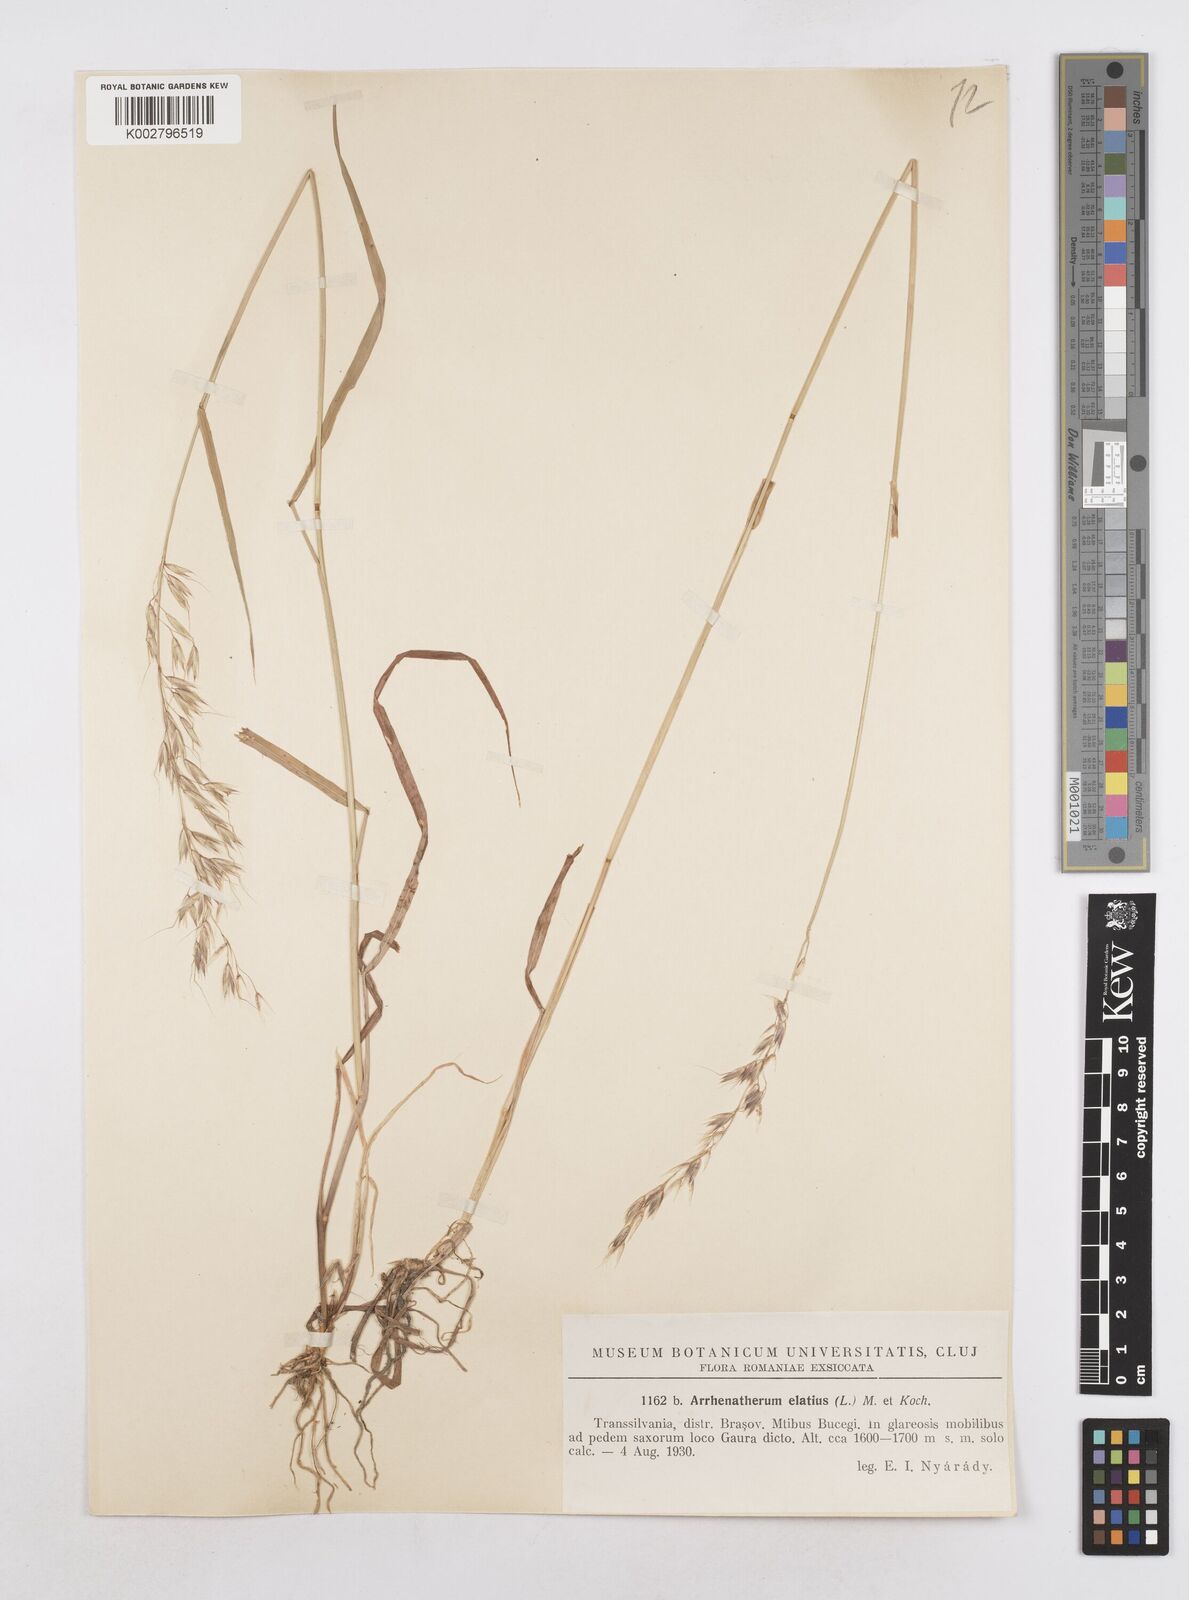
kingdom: Plantae
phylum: Tracheophyta
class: Liliopsida
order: Poales
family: Poaceae
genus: Arrhenatherum
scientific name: Arrhenatherum elatius
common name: Tall oatgrass
